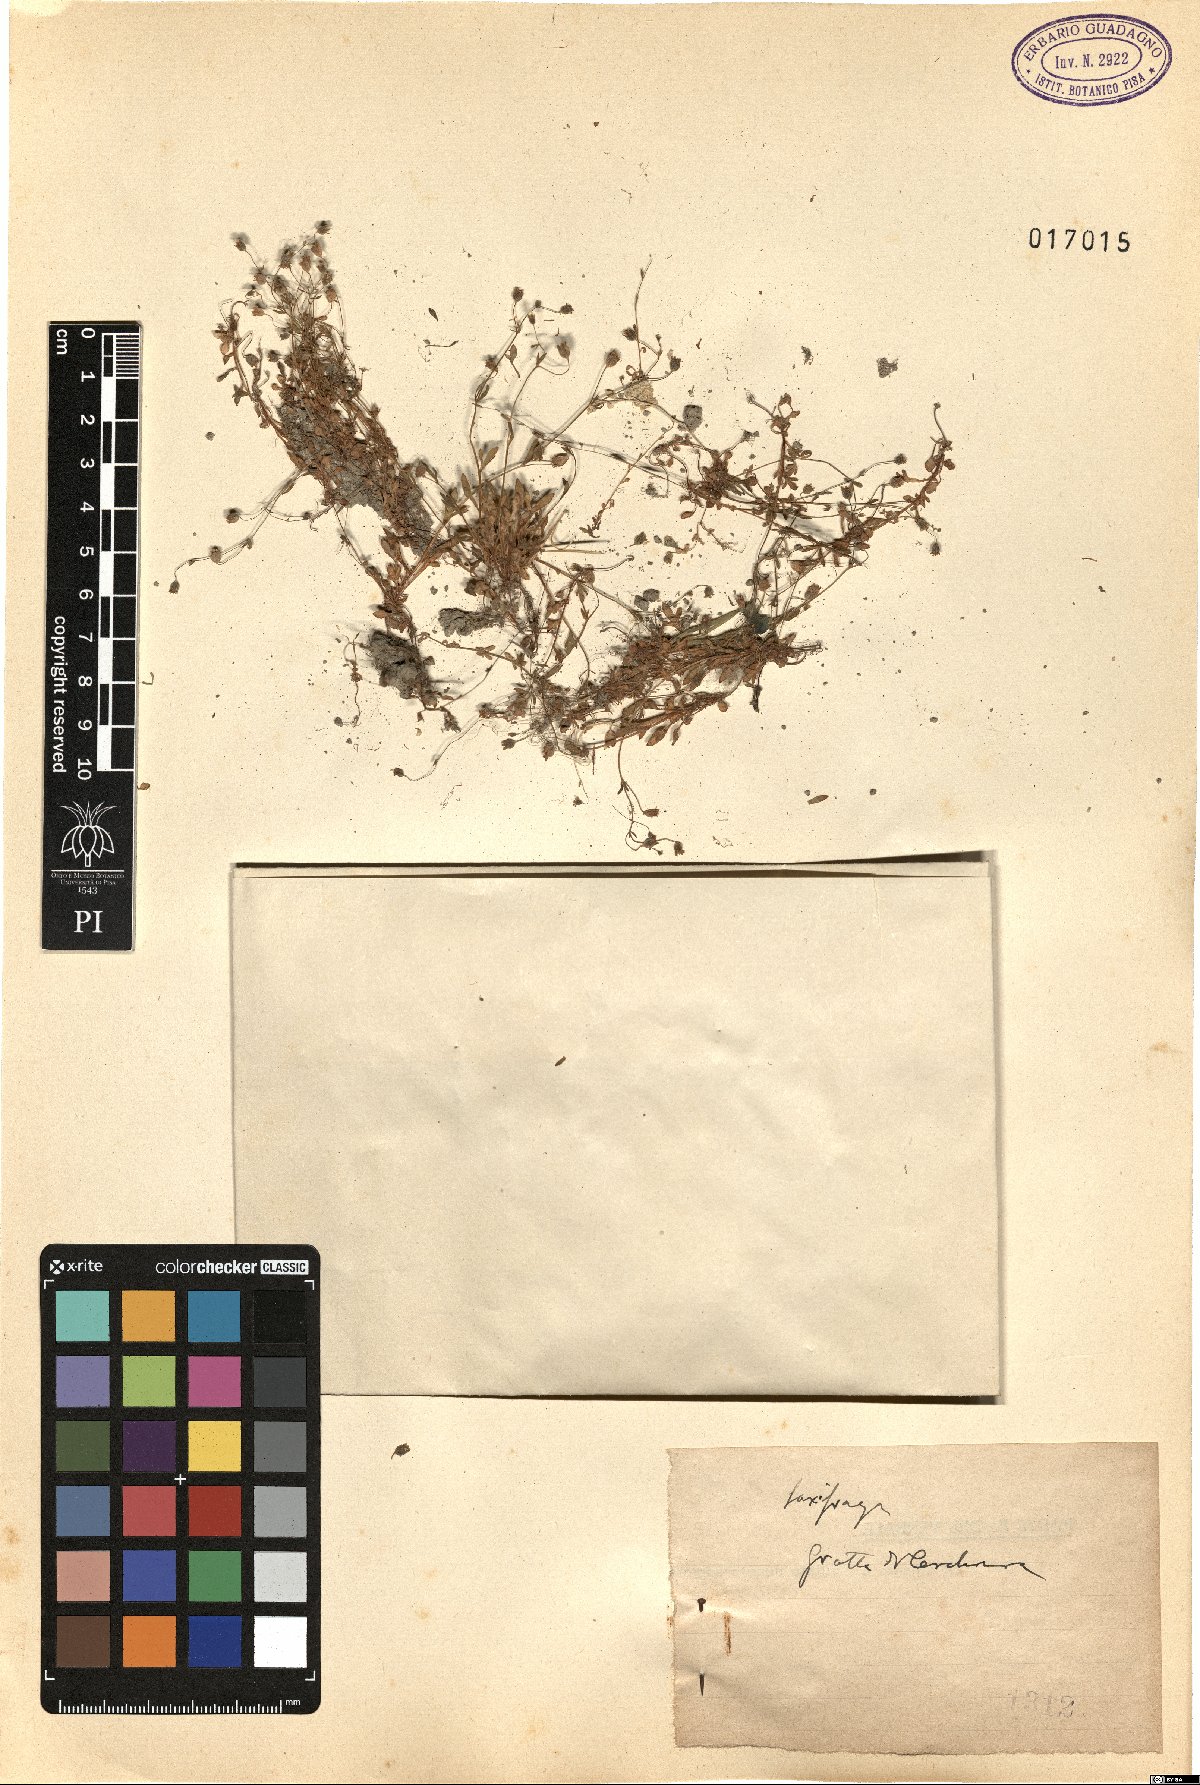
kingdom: Plantae
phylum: Tracheophyta
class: Magnoliopsida
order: Saxifragales
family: Saxifragaceae
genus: Saxifraga
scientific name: Saxifraga
